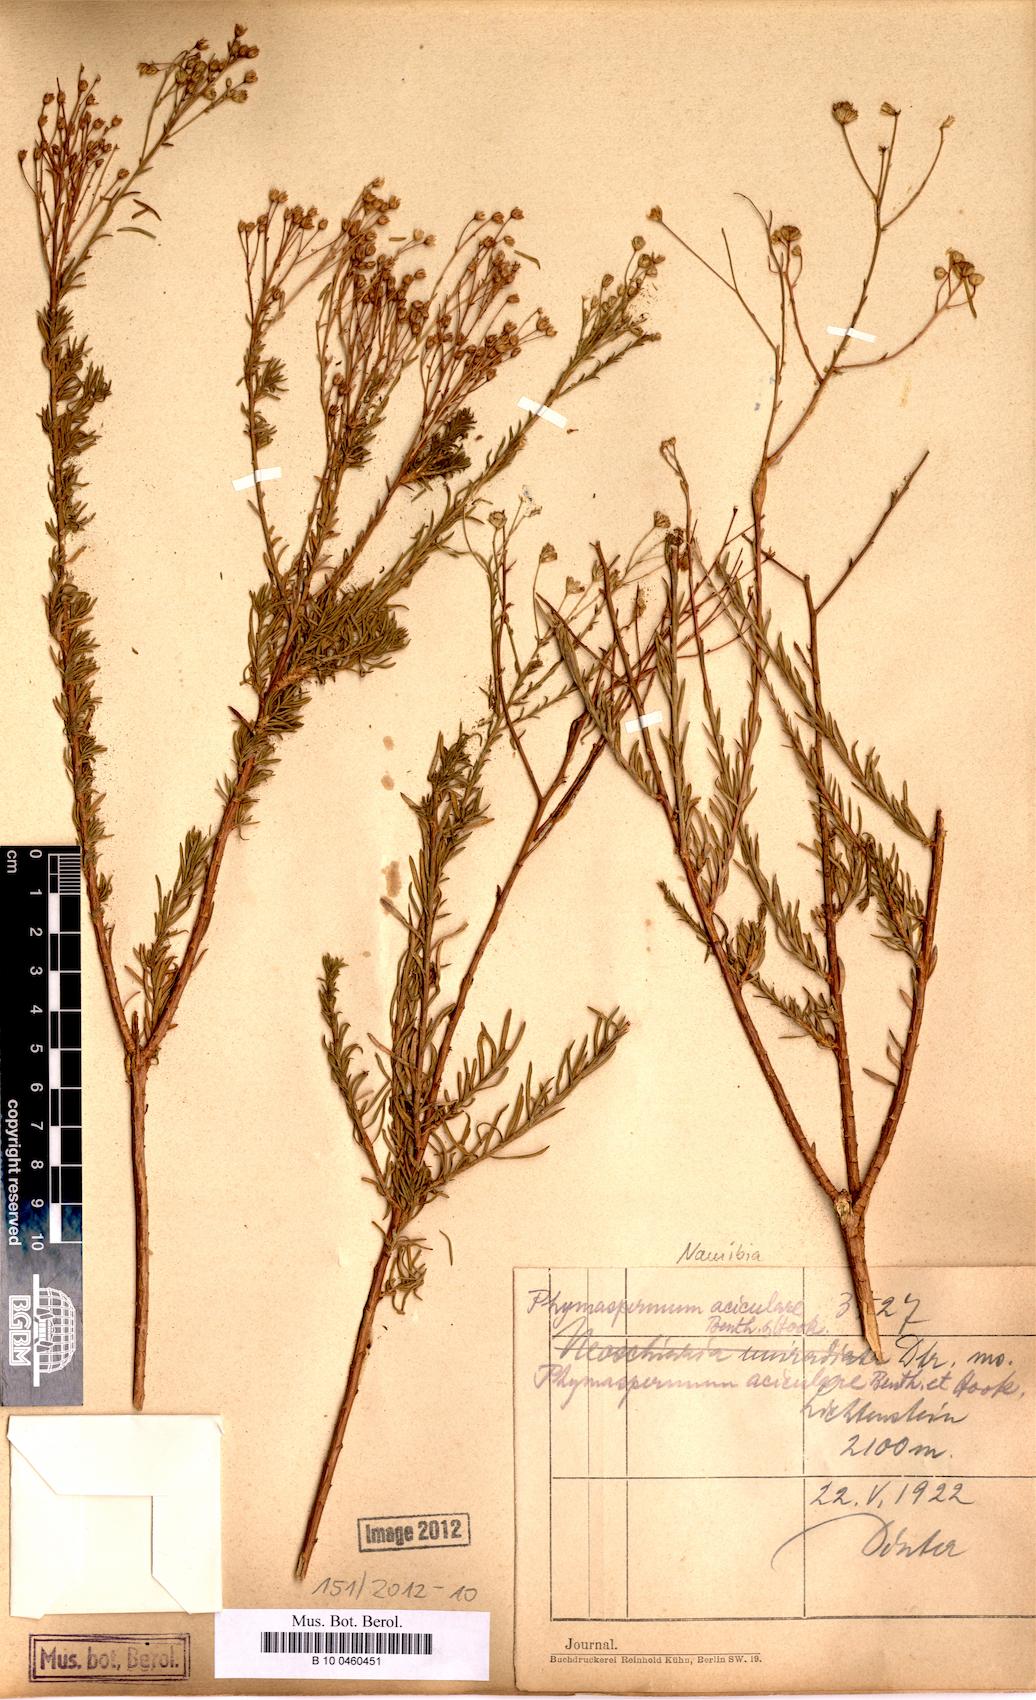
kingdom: Plantae
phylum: Tracheophyta
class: Magnoliopsida
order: Asterales
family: Asteraceae
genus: Phymaspermum
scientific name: Phymaspermum aciculare
